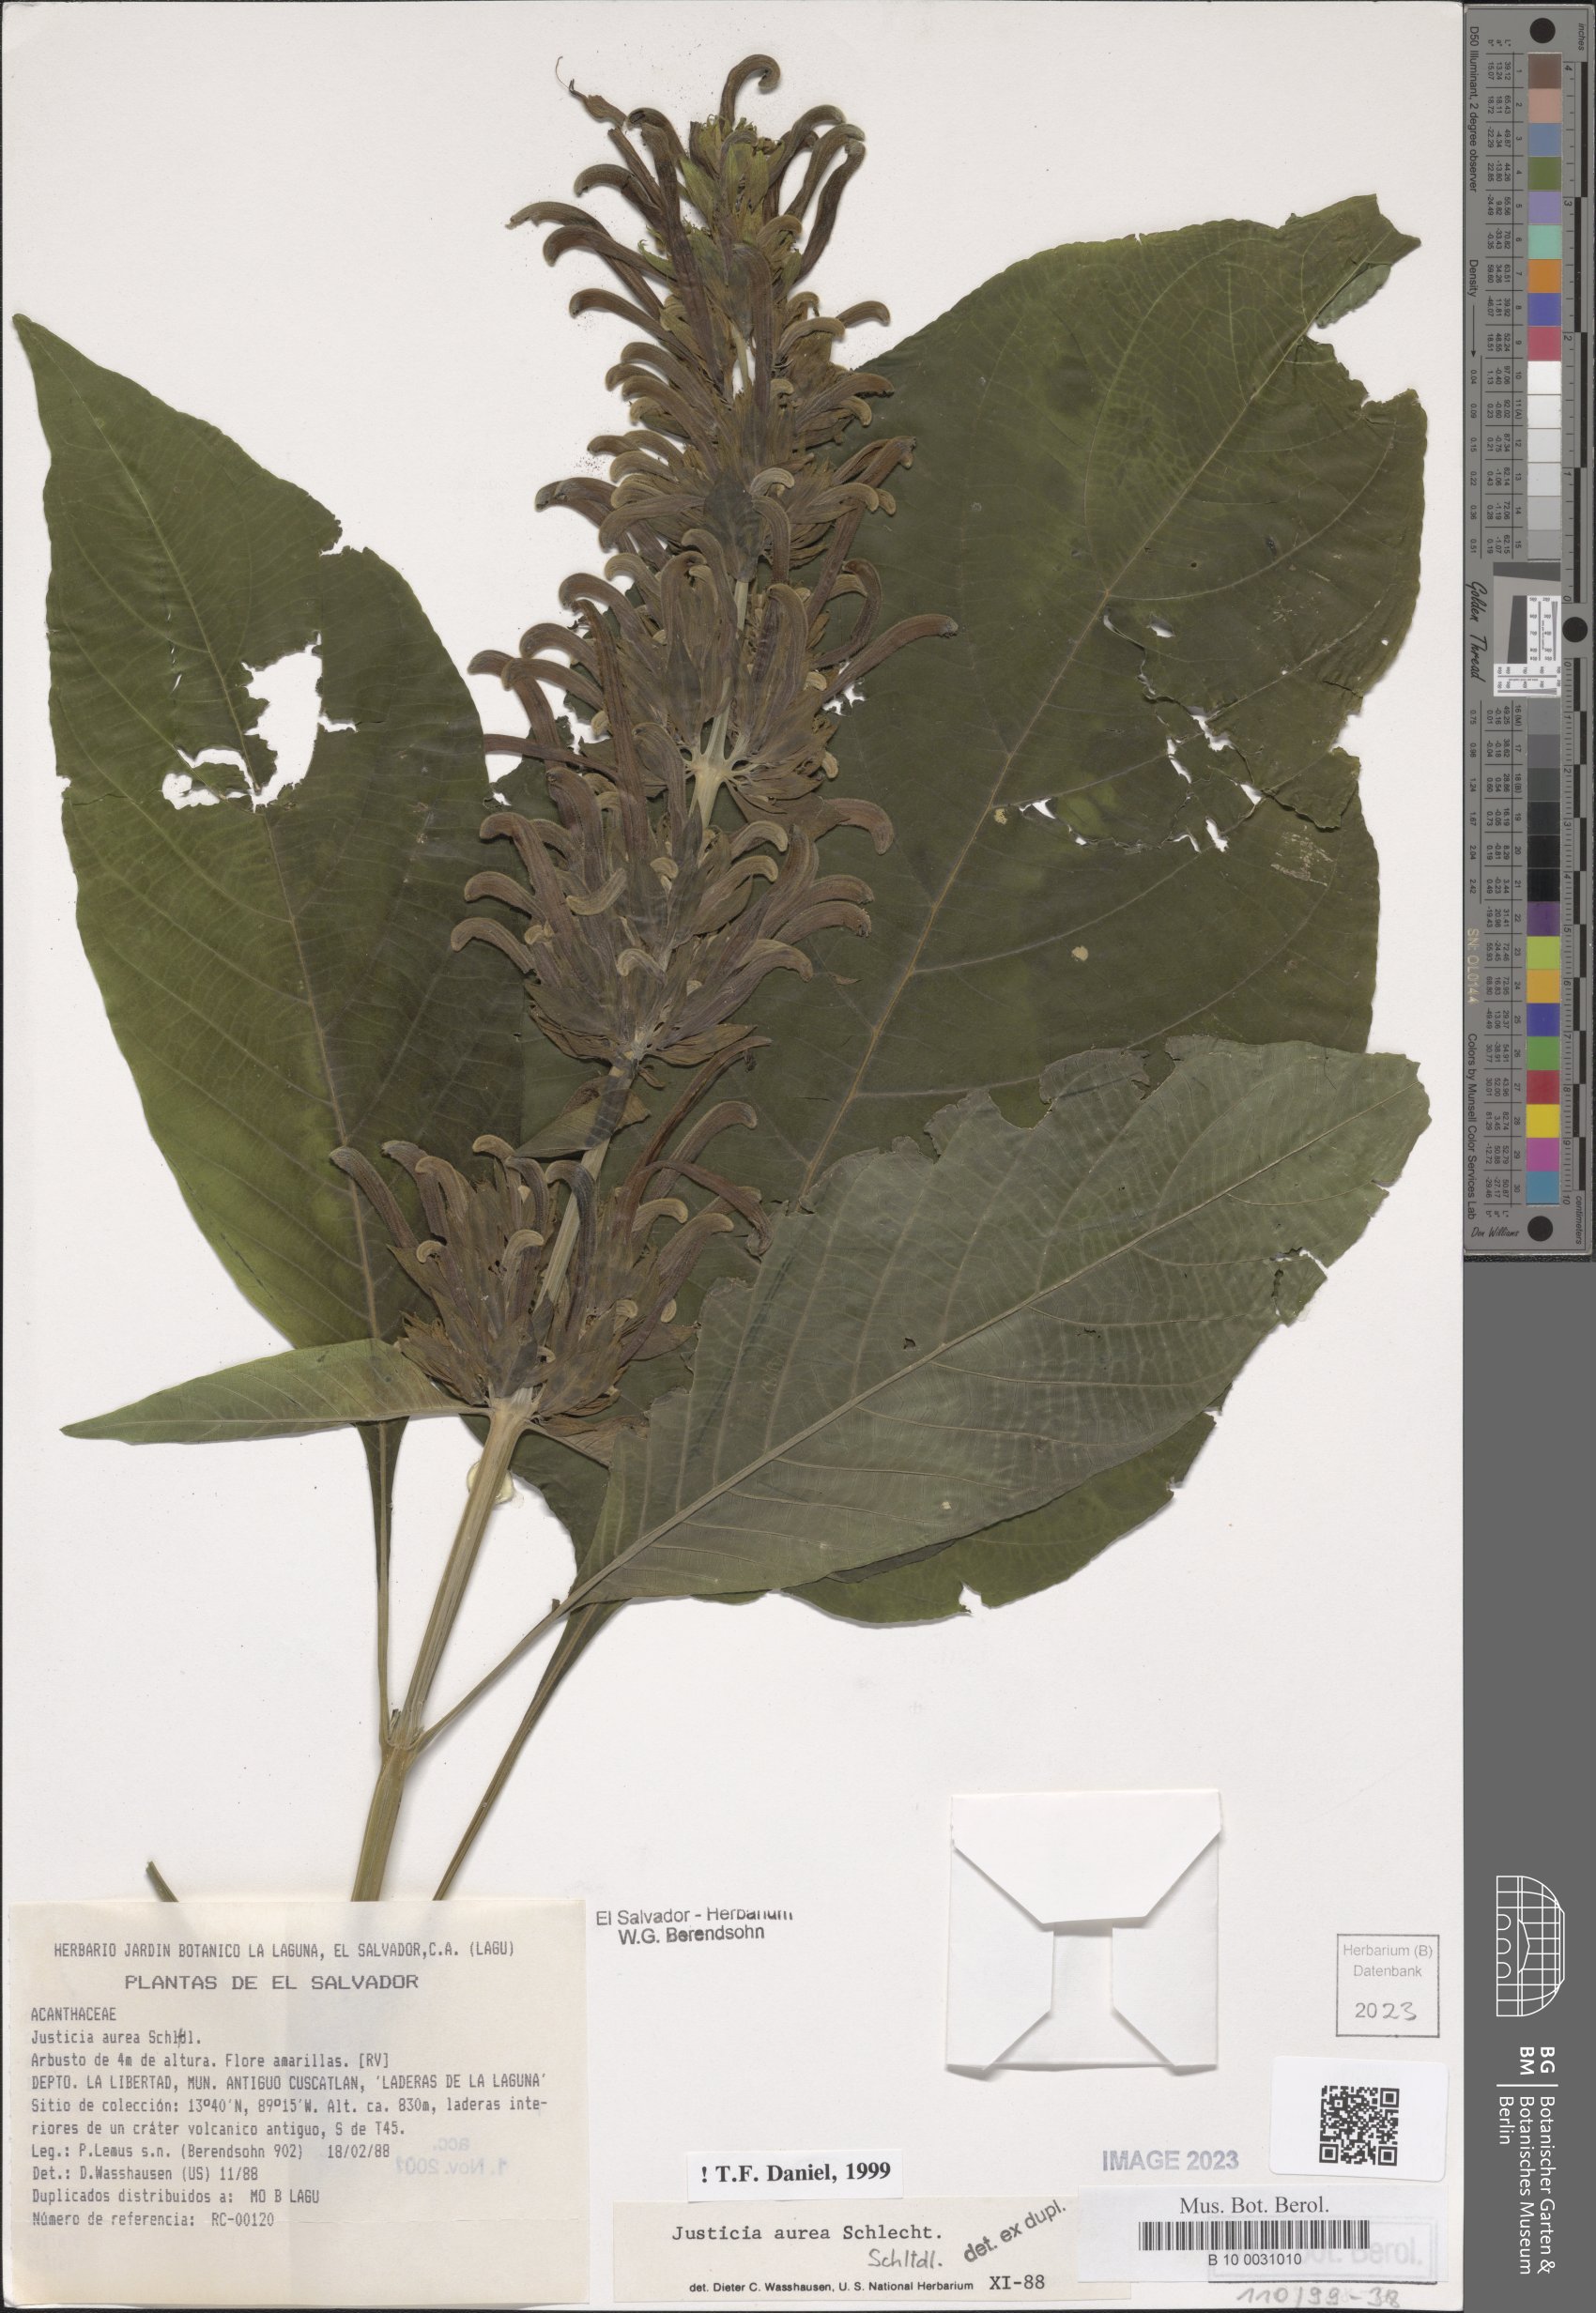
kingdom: Plantae
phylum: Tracheophyta
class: Magnoliopsida
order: Lamiales
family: Acanthaceae
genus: Justicia
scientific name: Justicia aurea
